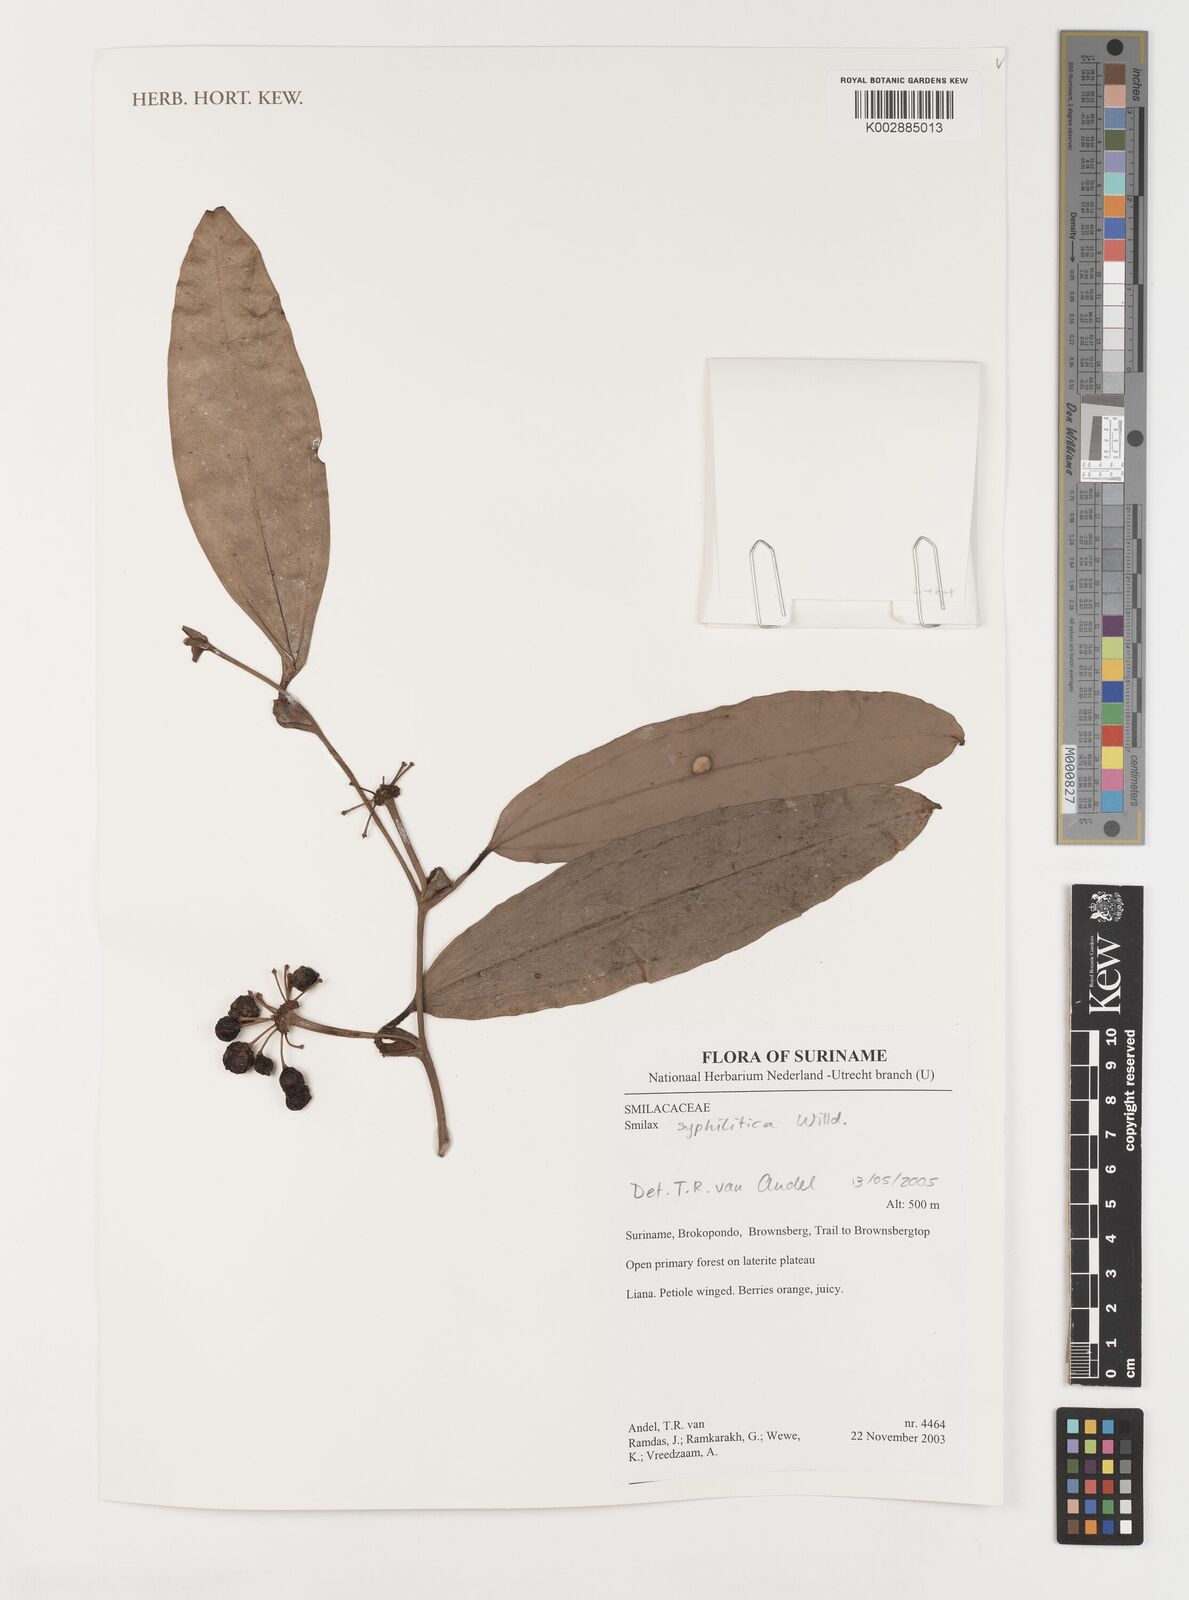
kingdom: Plantae
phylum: Tracheophyta
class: Liliopsida
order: Liliales
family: Smilacaceae
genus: Smilax
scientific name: Smilax schomburgkiana
